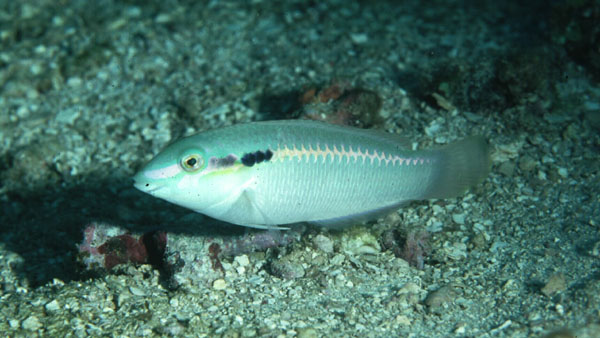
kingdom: Animalia
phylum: Chordata
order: Perciformes
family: Labridae
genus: Halichoeres
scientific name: Halichoeres scapularis
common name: Brownbanded wrasse
